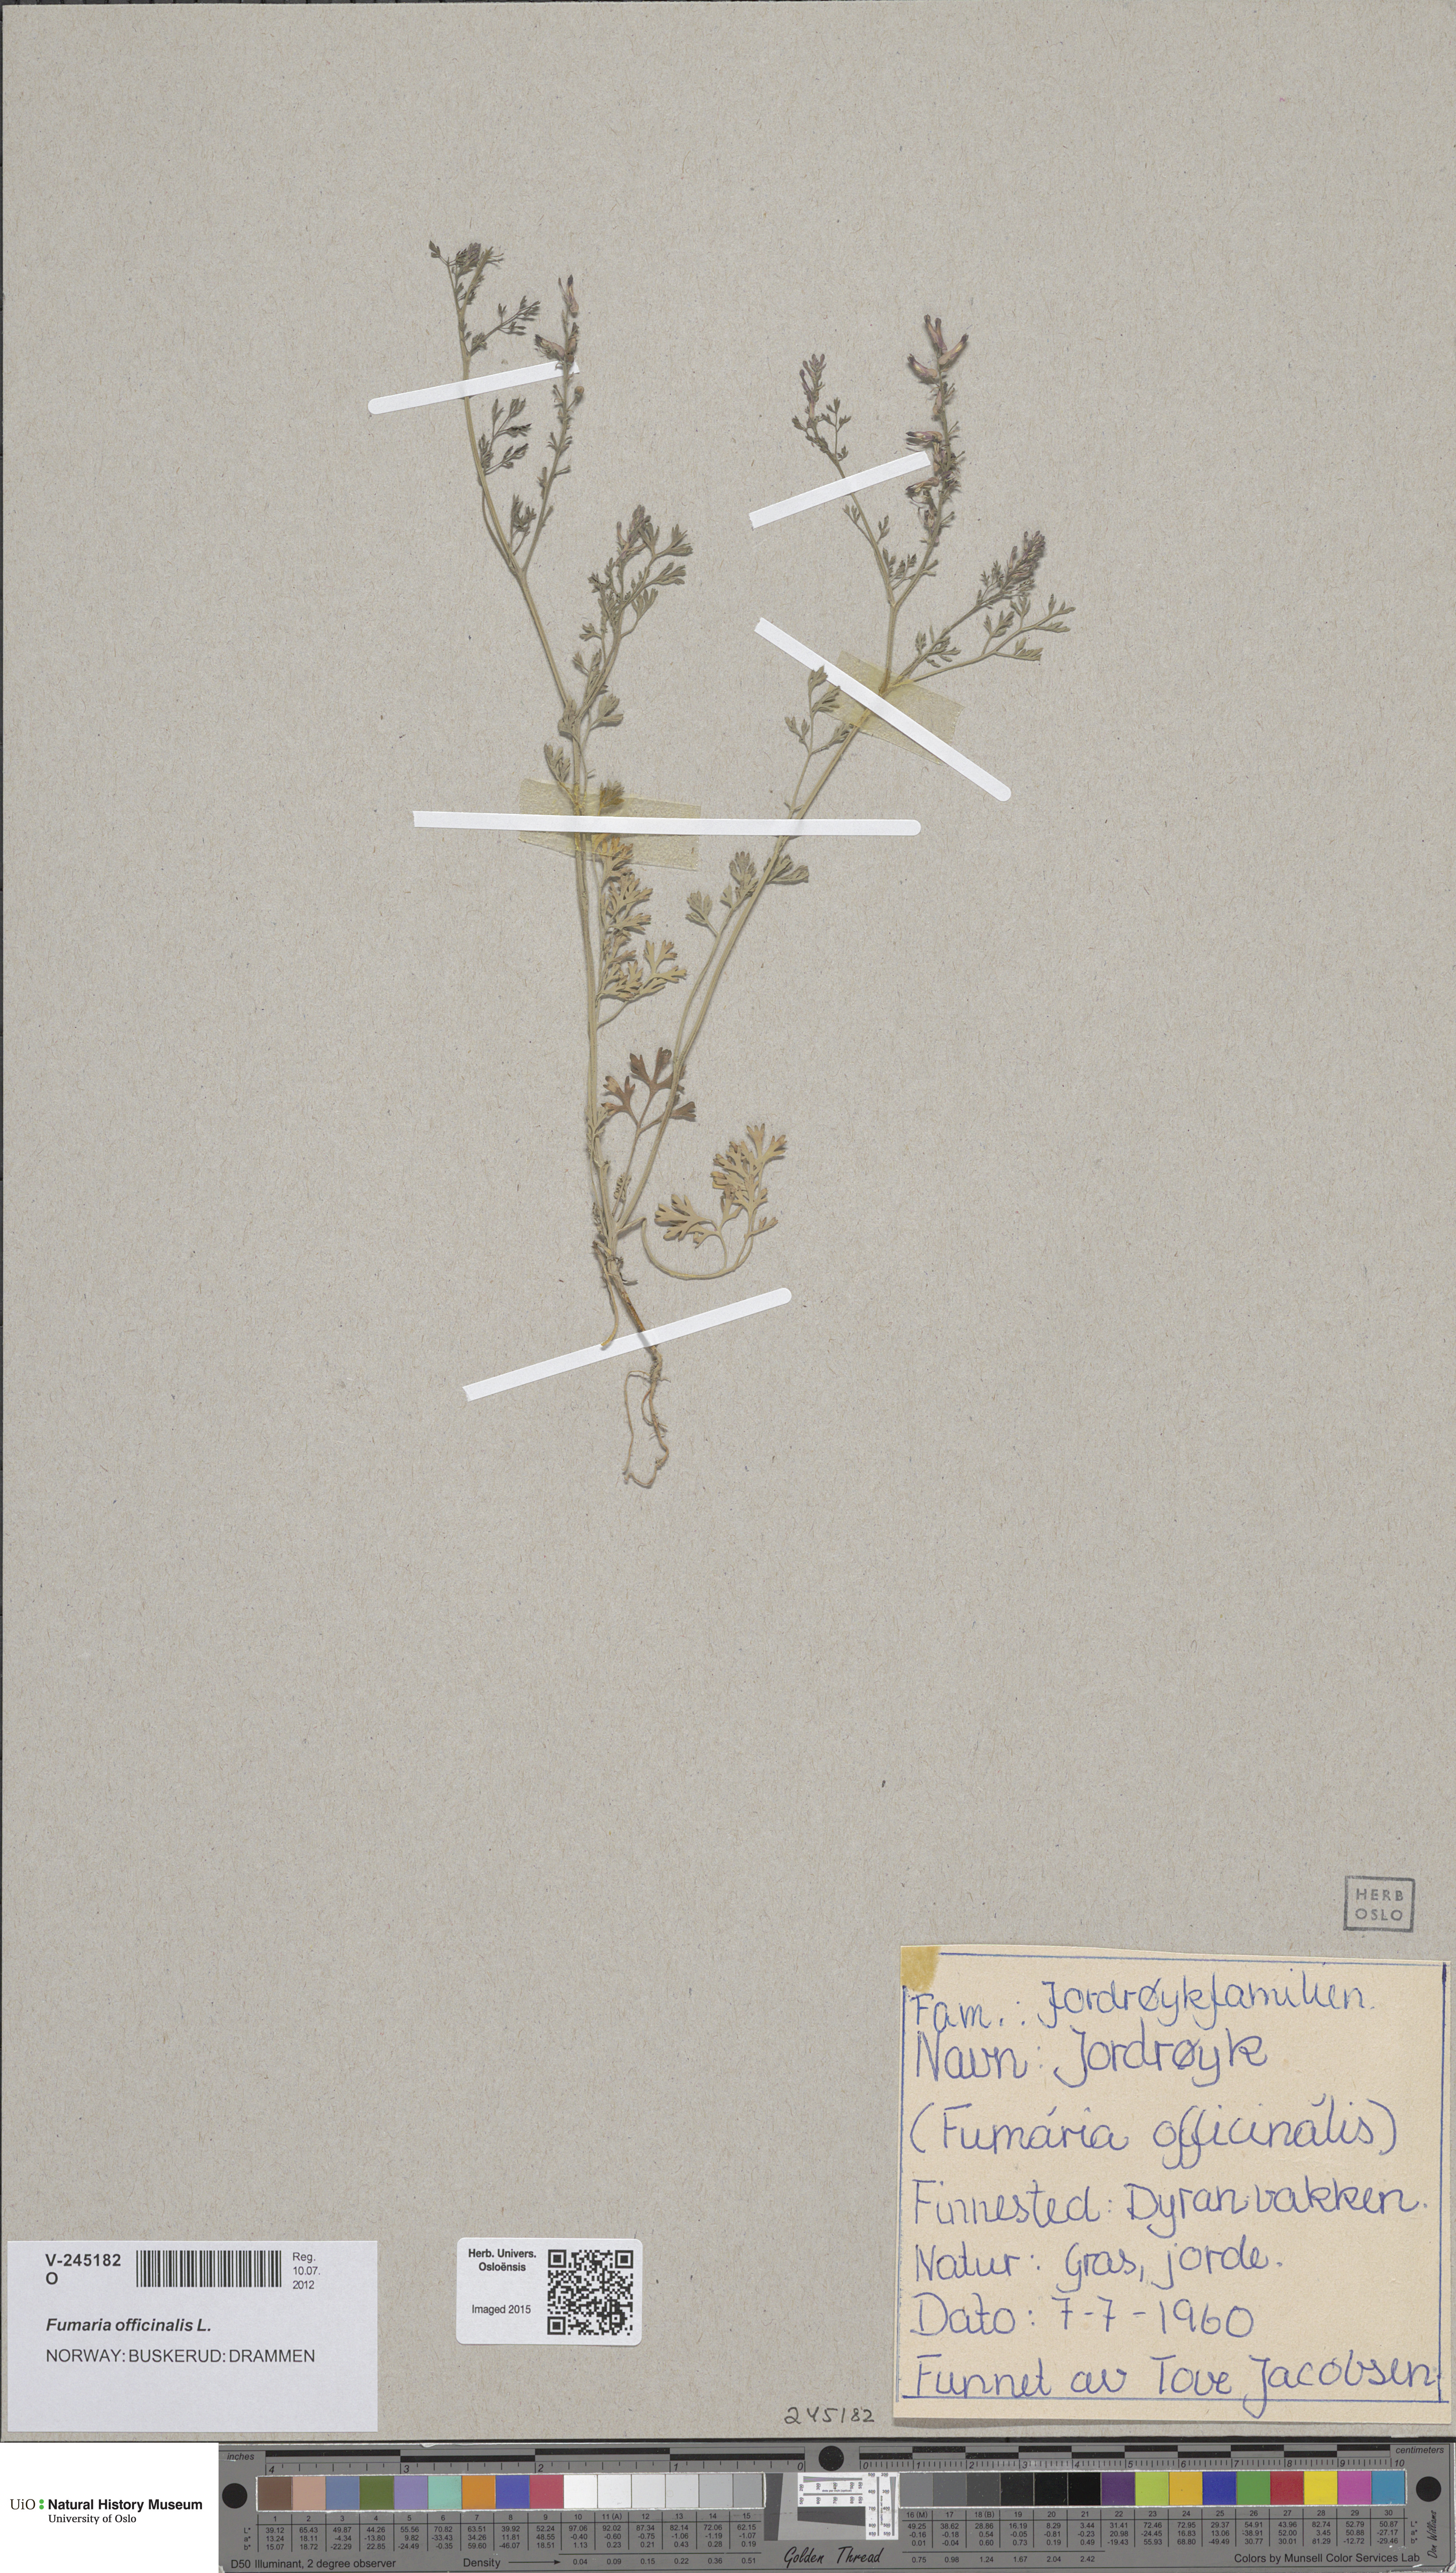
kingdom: Plantae
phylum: Tracheophyta
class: Magnoliopsida
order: Ranunculales
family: Papaveraceae
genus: Fumaria
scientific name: Fumaria officinalis
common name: Common fumitory
